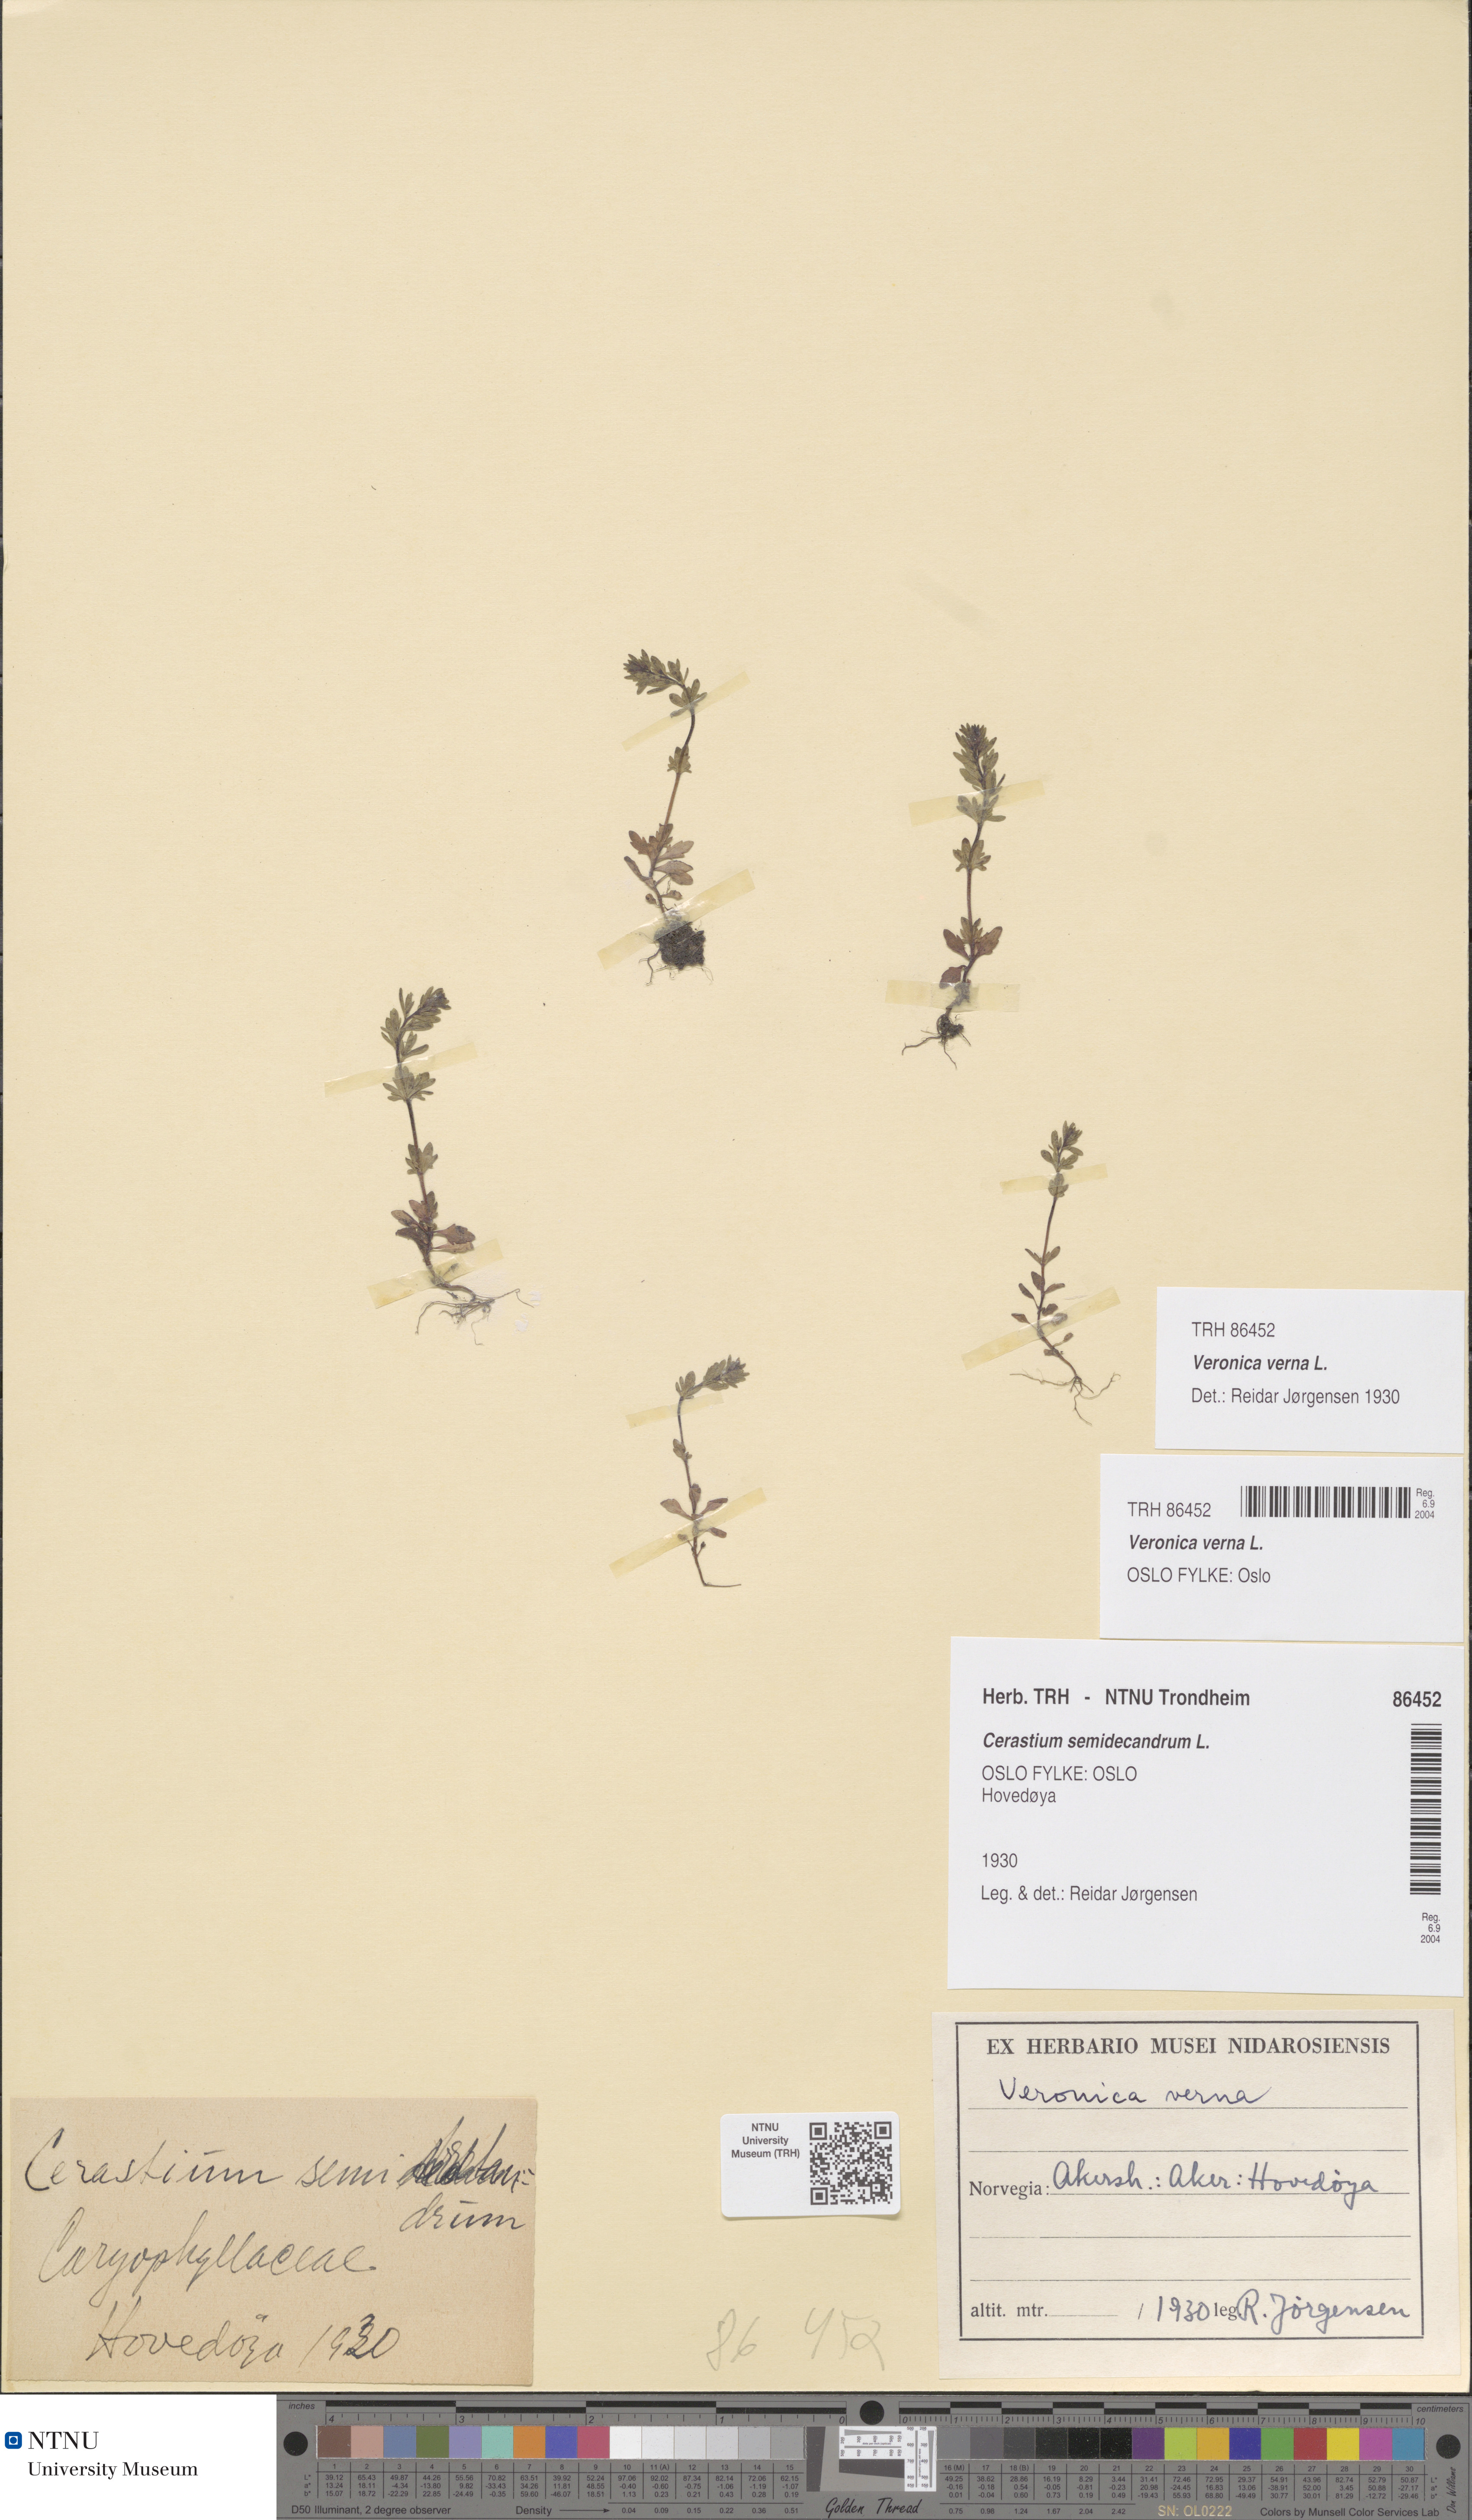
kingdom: Plantae
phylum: Tracheophyta
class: Magnoliopsida
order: Lamiales
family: Plantaginaceae
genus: Veronica
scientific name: Veronica verna
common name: Spring speedwell
